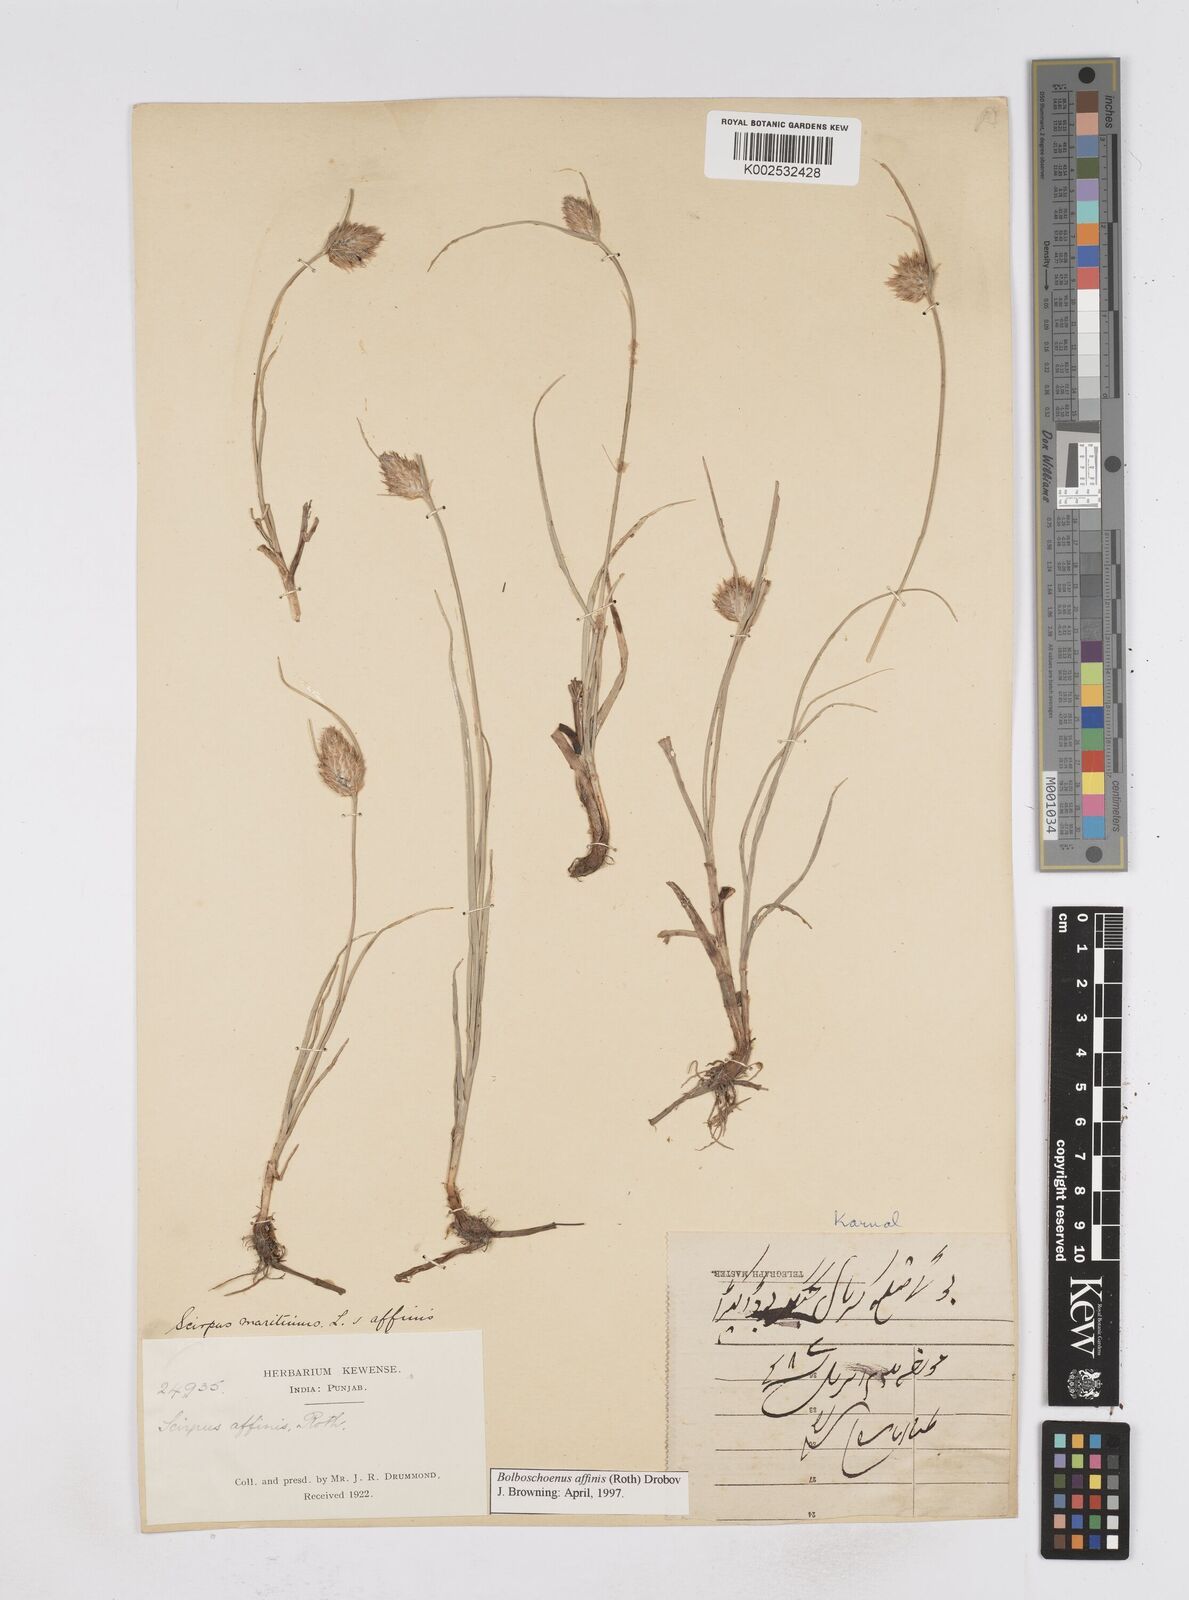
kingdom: Plantae
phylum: Tracheophyta
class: Liliopsida
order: Poales
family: Cyperaceae
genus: Bolboschoenus
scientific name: Bolboschoenus maritimus
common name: Sea club-rush
